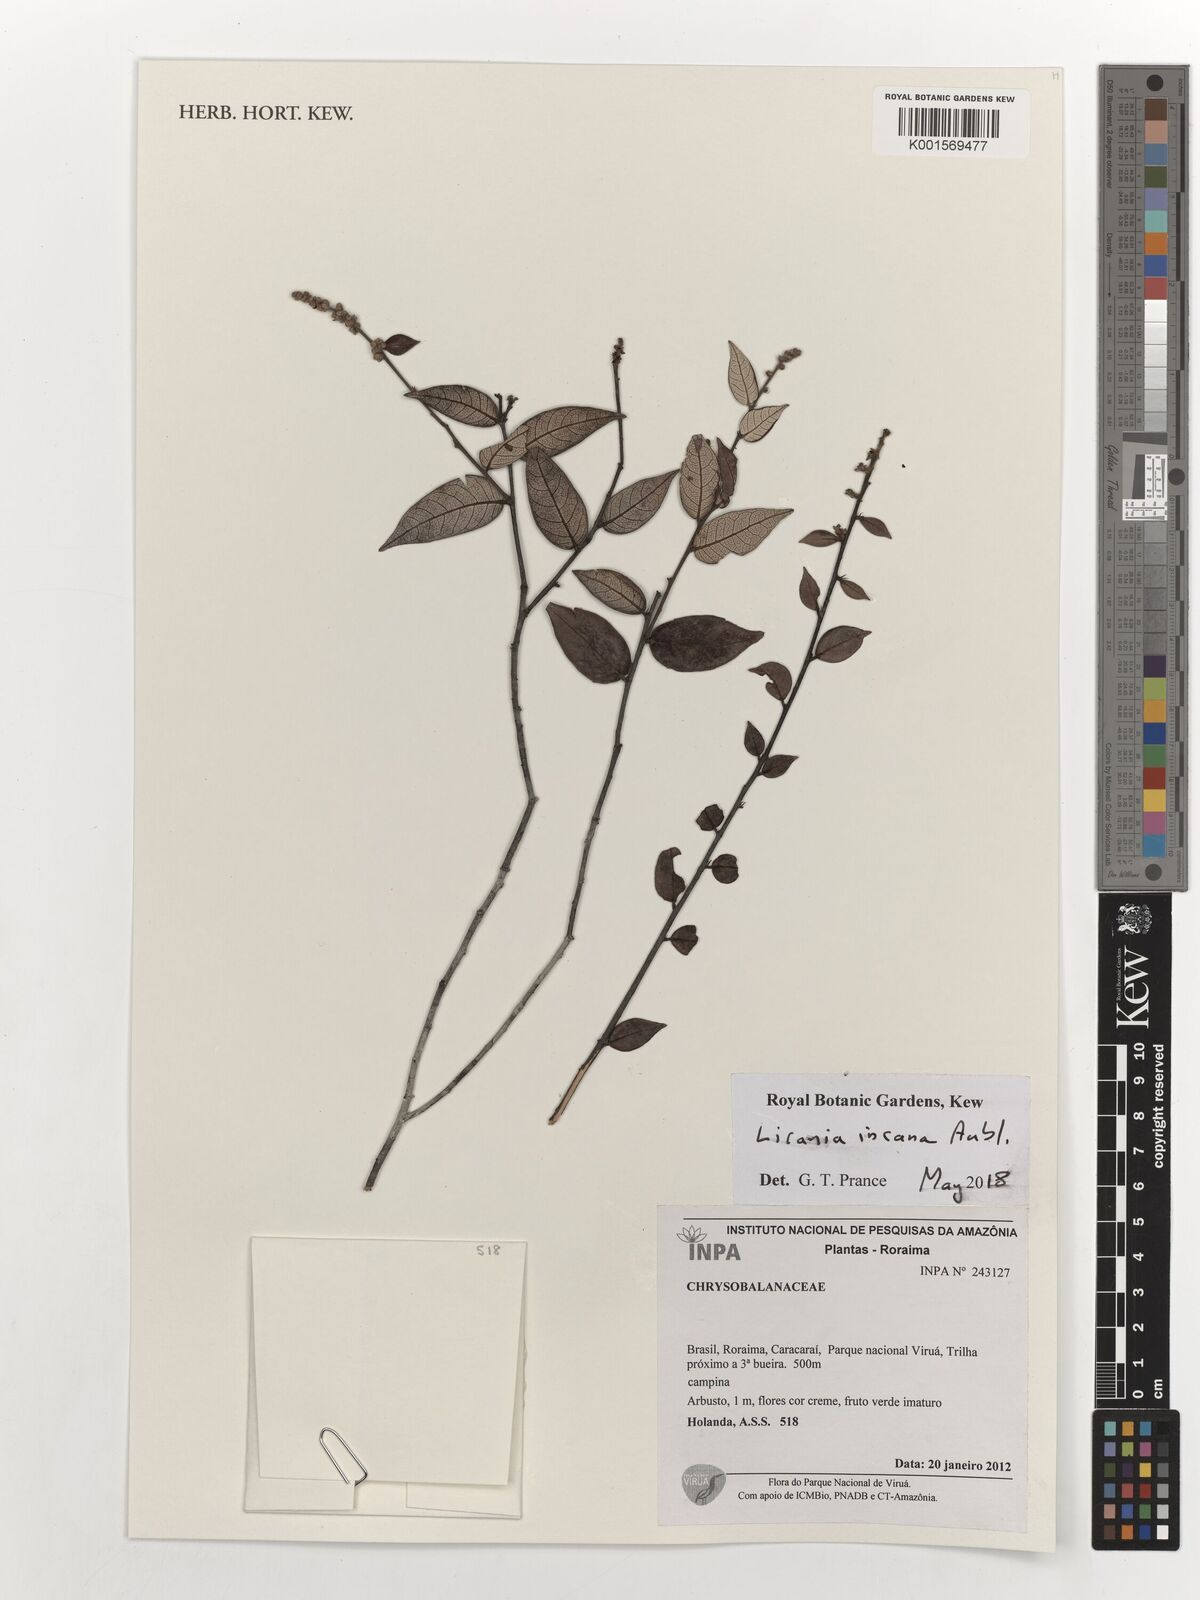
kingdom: Plantae
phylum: Tracheophyta
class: Magnoliopsida
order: Malpighiales
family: Chrysobalanaceae
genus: Licania
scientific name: Licania incana
